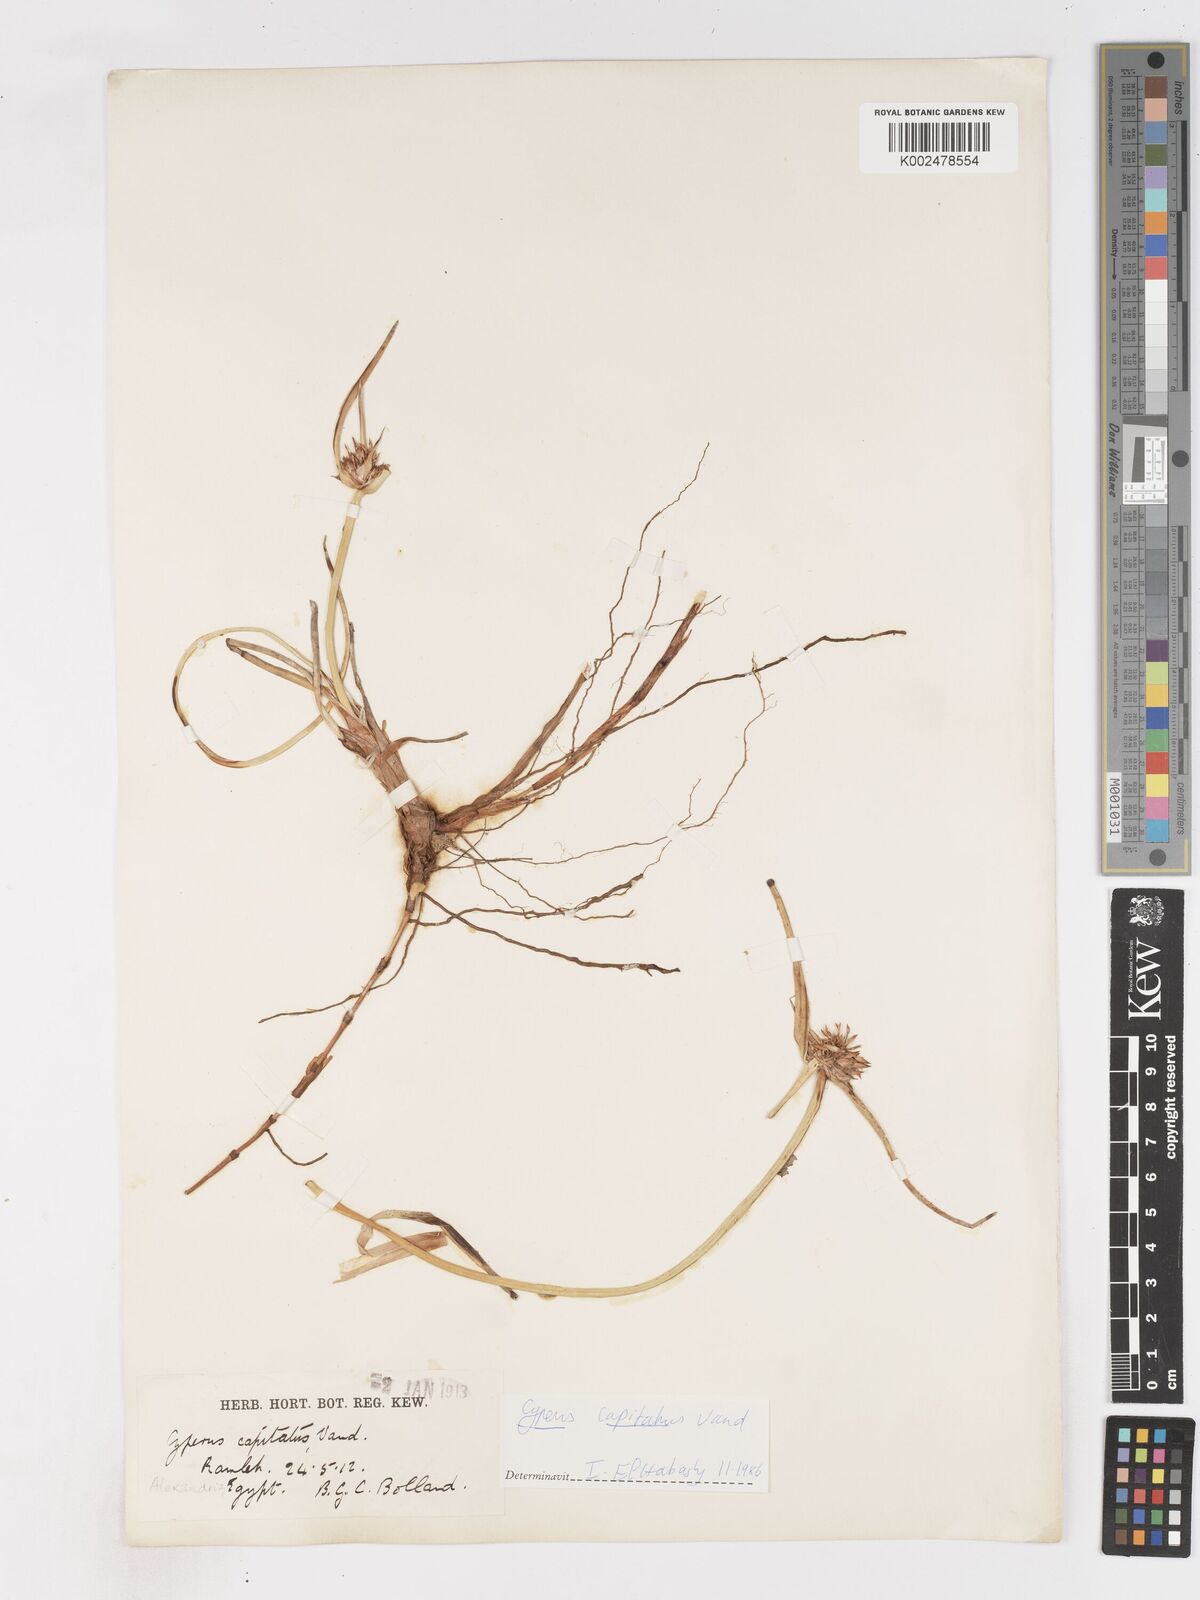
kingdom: Plantae
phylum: Tracheophyta
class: Liliopsida
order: Poales
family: Cyperaceae
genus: Cyperus
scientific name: Cyperus capitatus
